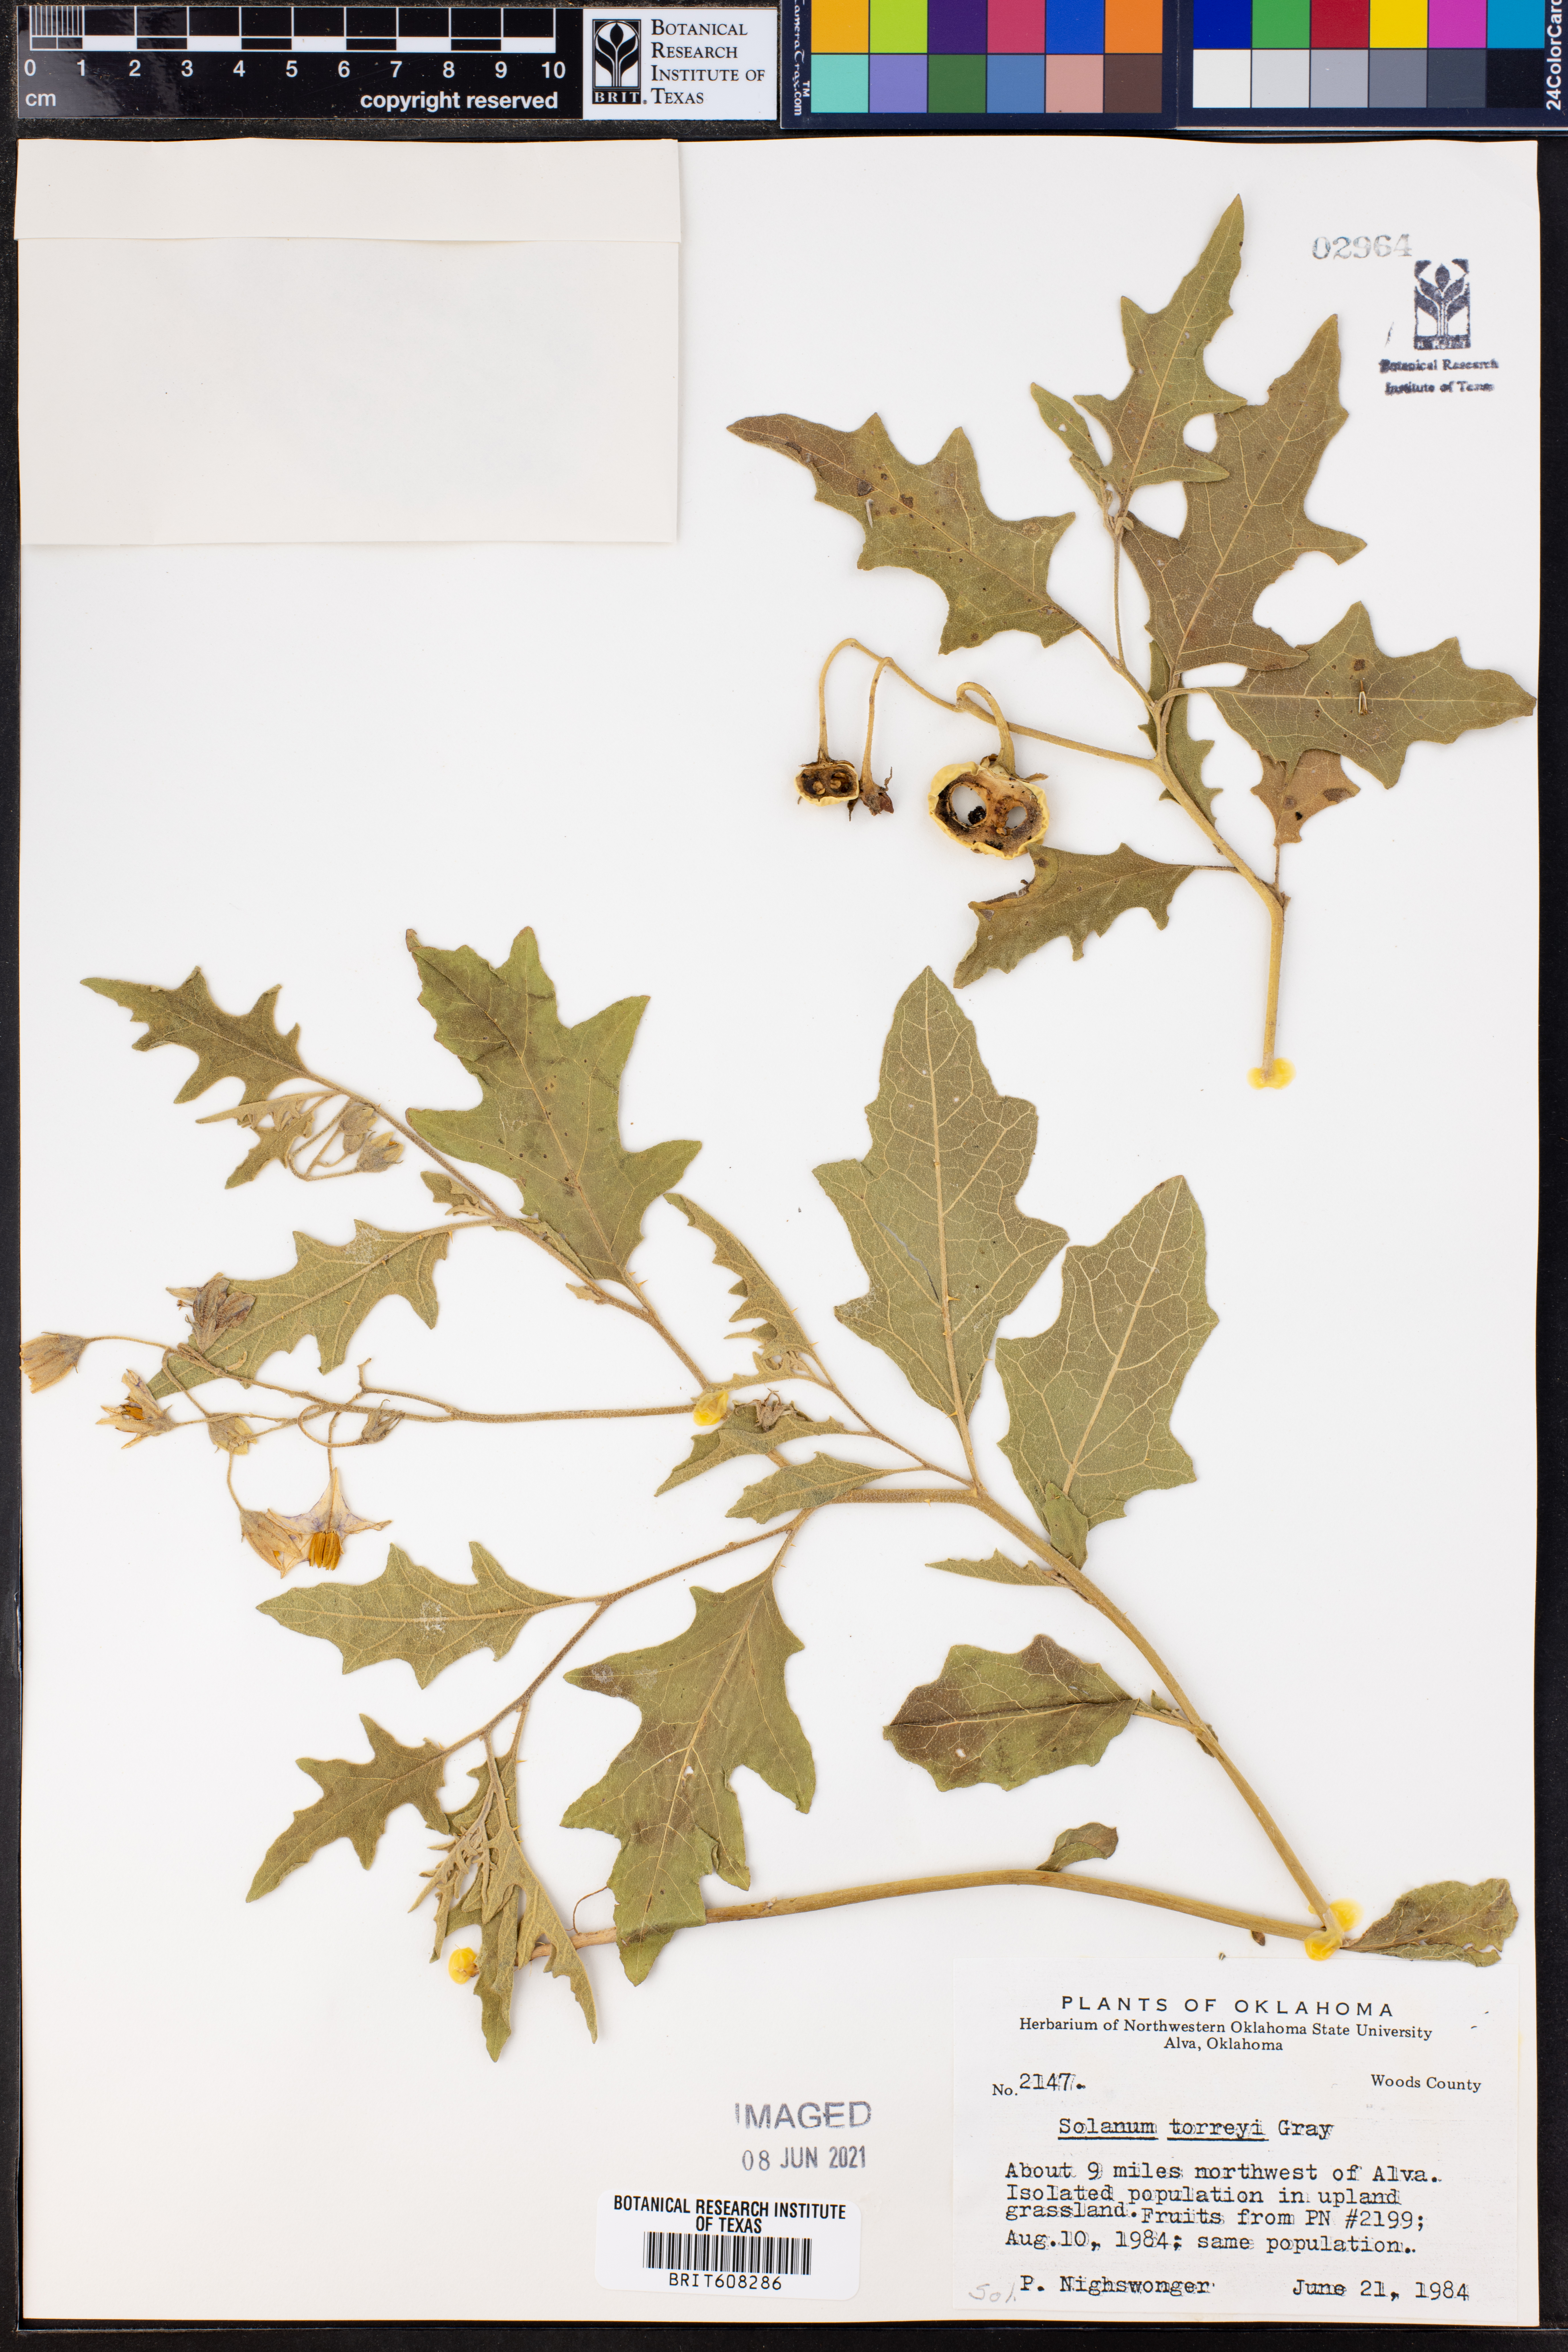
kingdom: Plantae
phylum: Tracheophyta
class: Magnoliopsida
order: Solanales
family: Solanaceae
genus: Solanum
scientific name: Solanum dimidiatum
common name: Carolina horse-nettle
